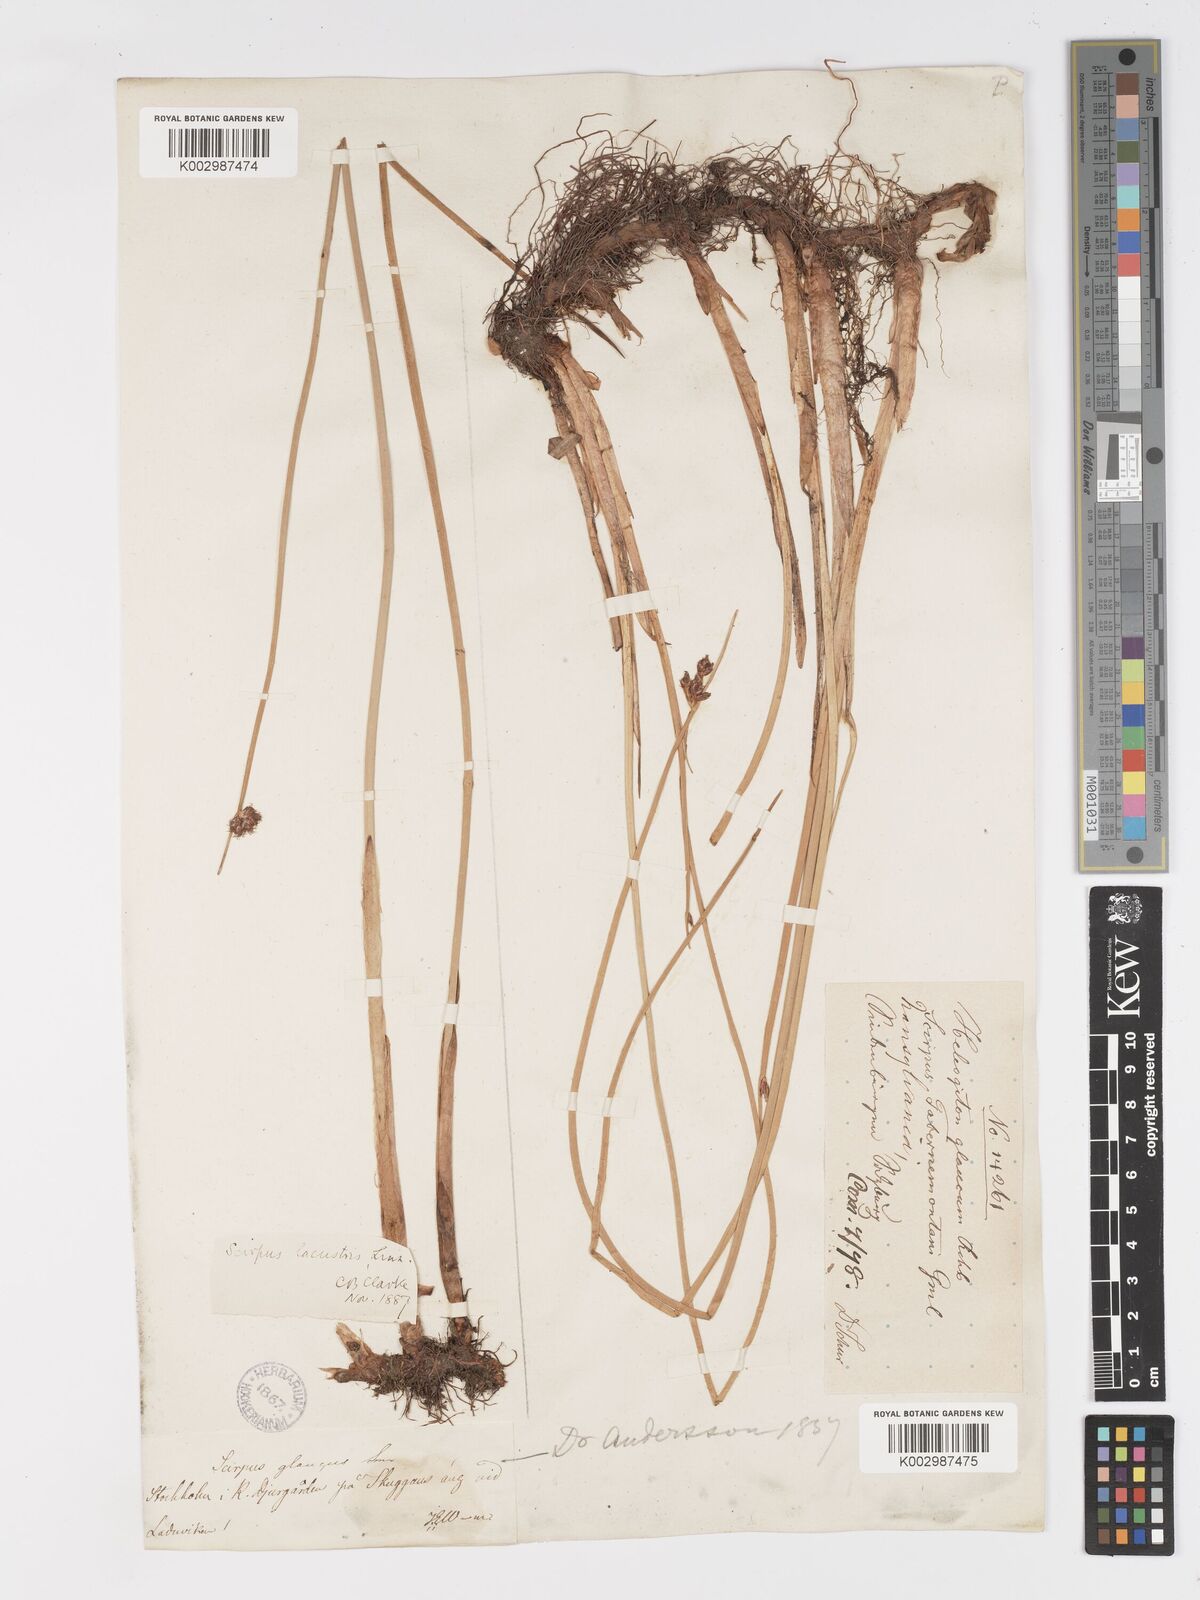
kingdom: Plantae
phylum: Tracheophyta
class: Liliopsida
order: Poales
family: Cyperaceae
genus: Schoenoplectus
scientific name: Schoenoplectus lacustris
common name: Common club-rush
